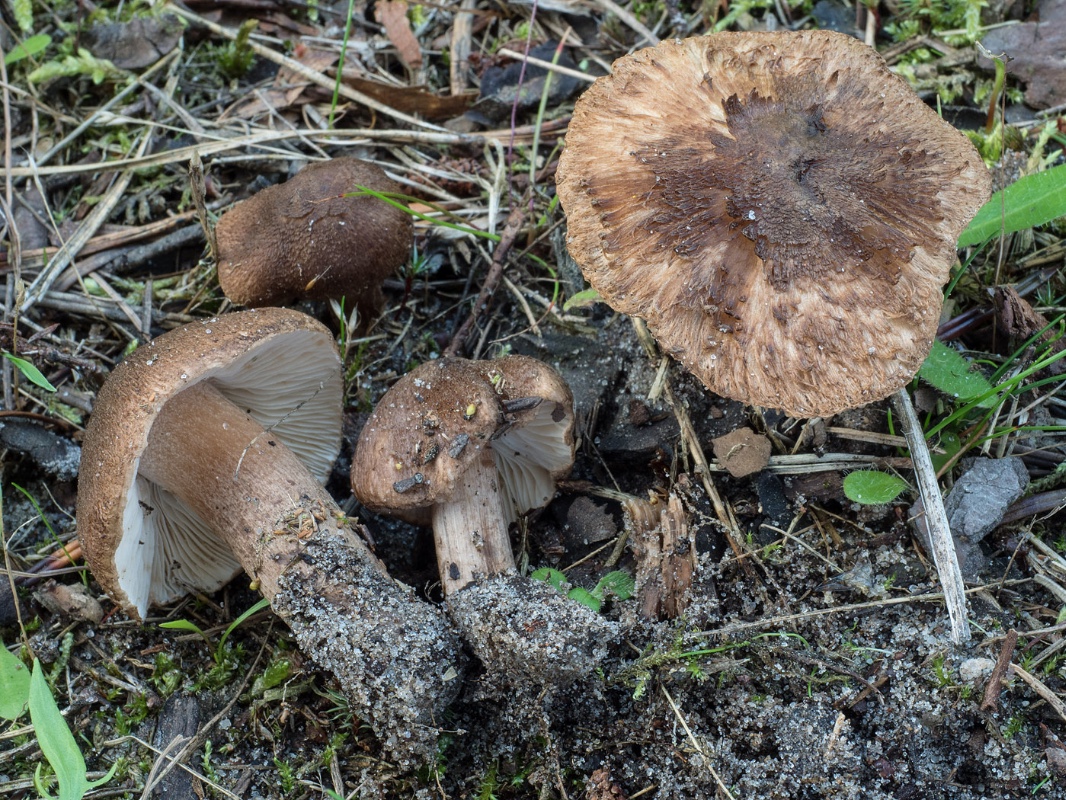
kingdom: Fungi
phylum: Basidiomycota
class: Agaricomycetes
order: Agaricales
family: Inocybaceae
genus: Inocybe
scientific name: Inocybe soluta
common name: lysbladet trævlhat
